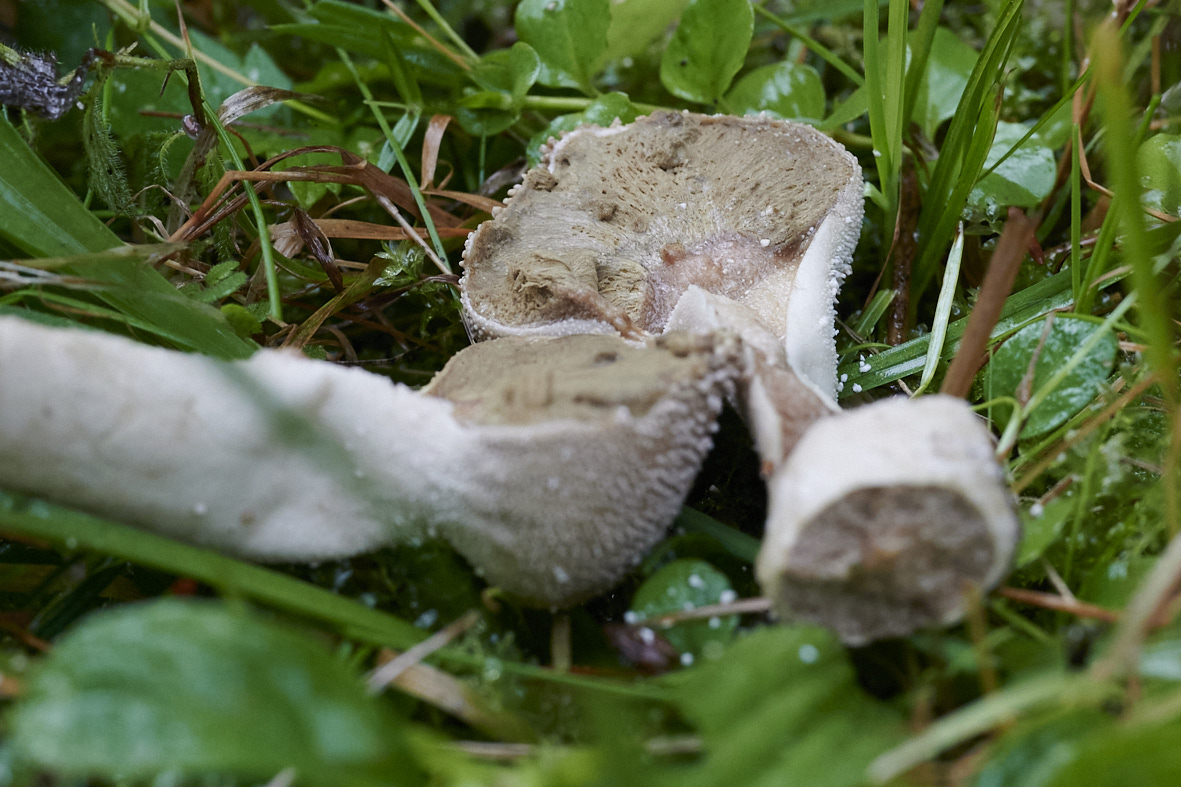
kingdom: Fungi
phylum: Basidiomycota
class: Agaricomycetes
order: Agaricales
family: Lycoperdaceae
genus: Lycoperdon
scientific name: Lycoperdon perlatum
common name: krystal-støvbold
